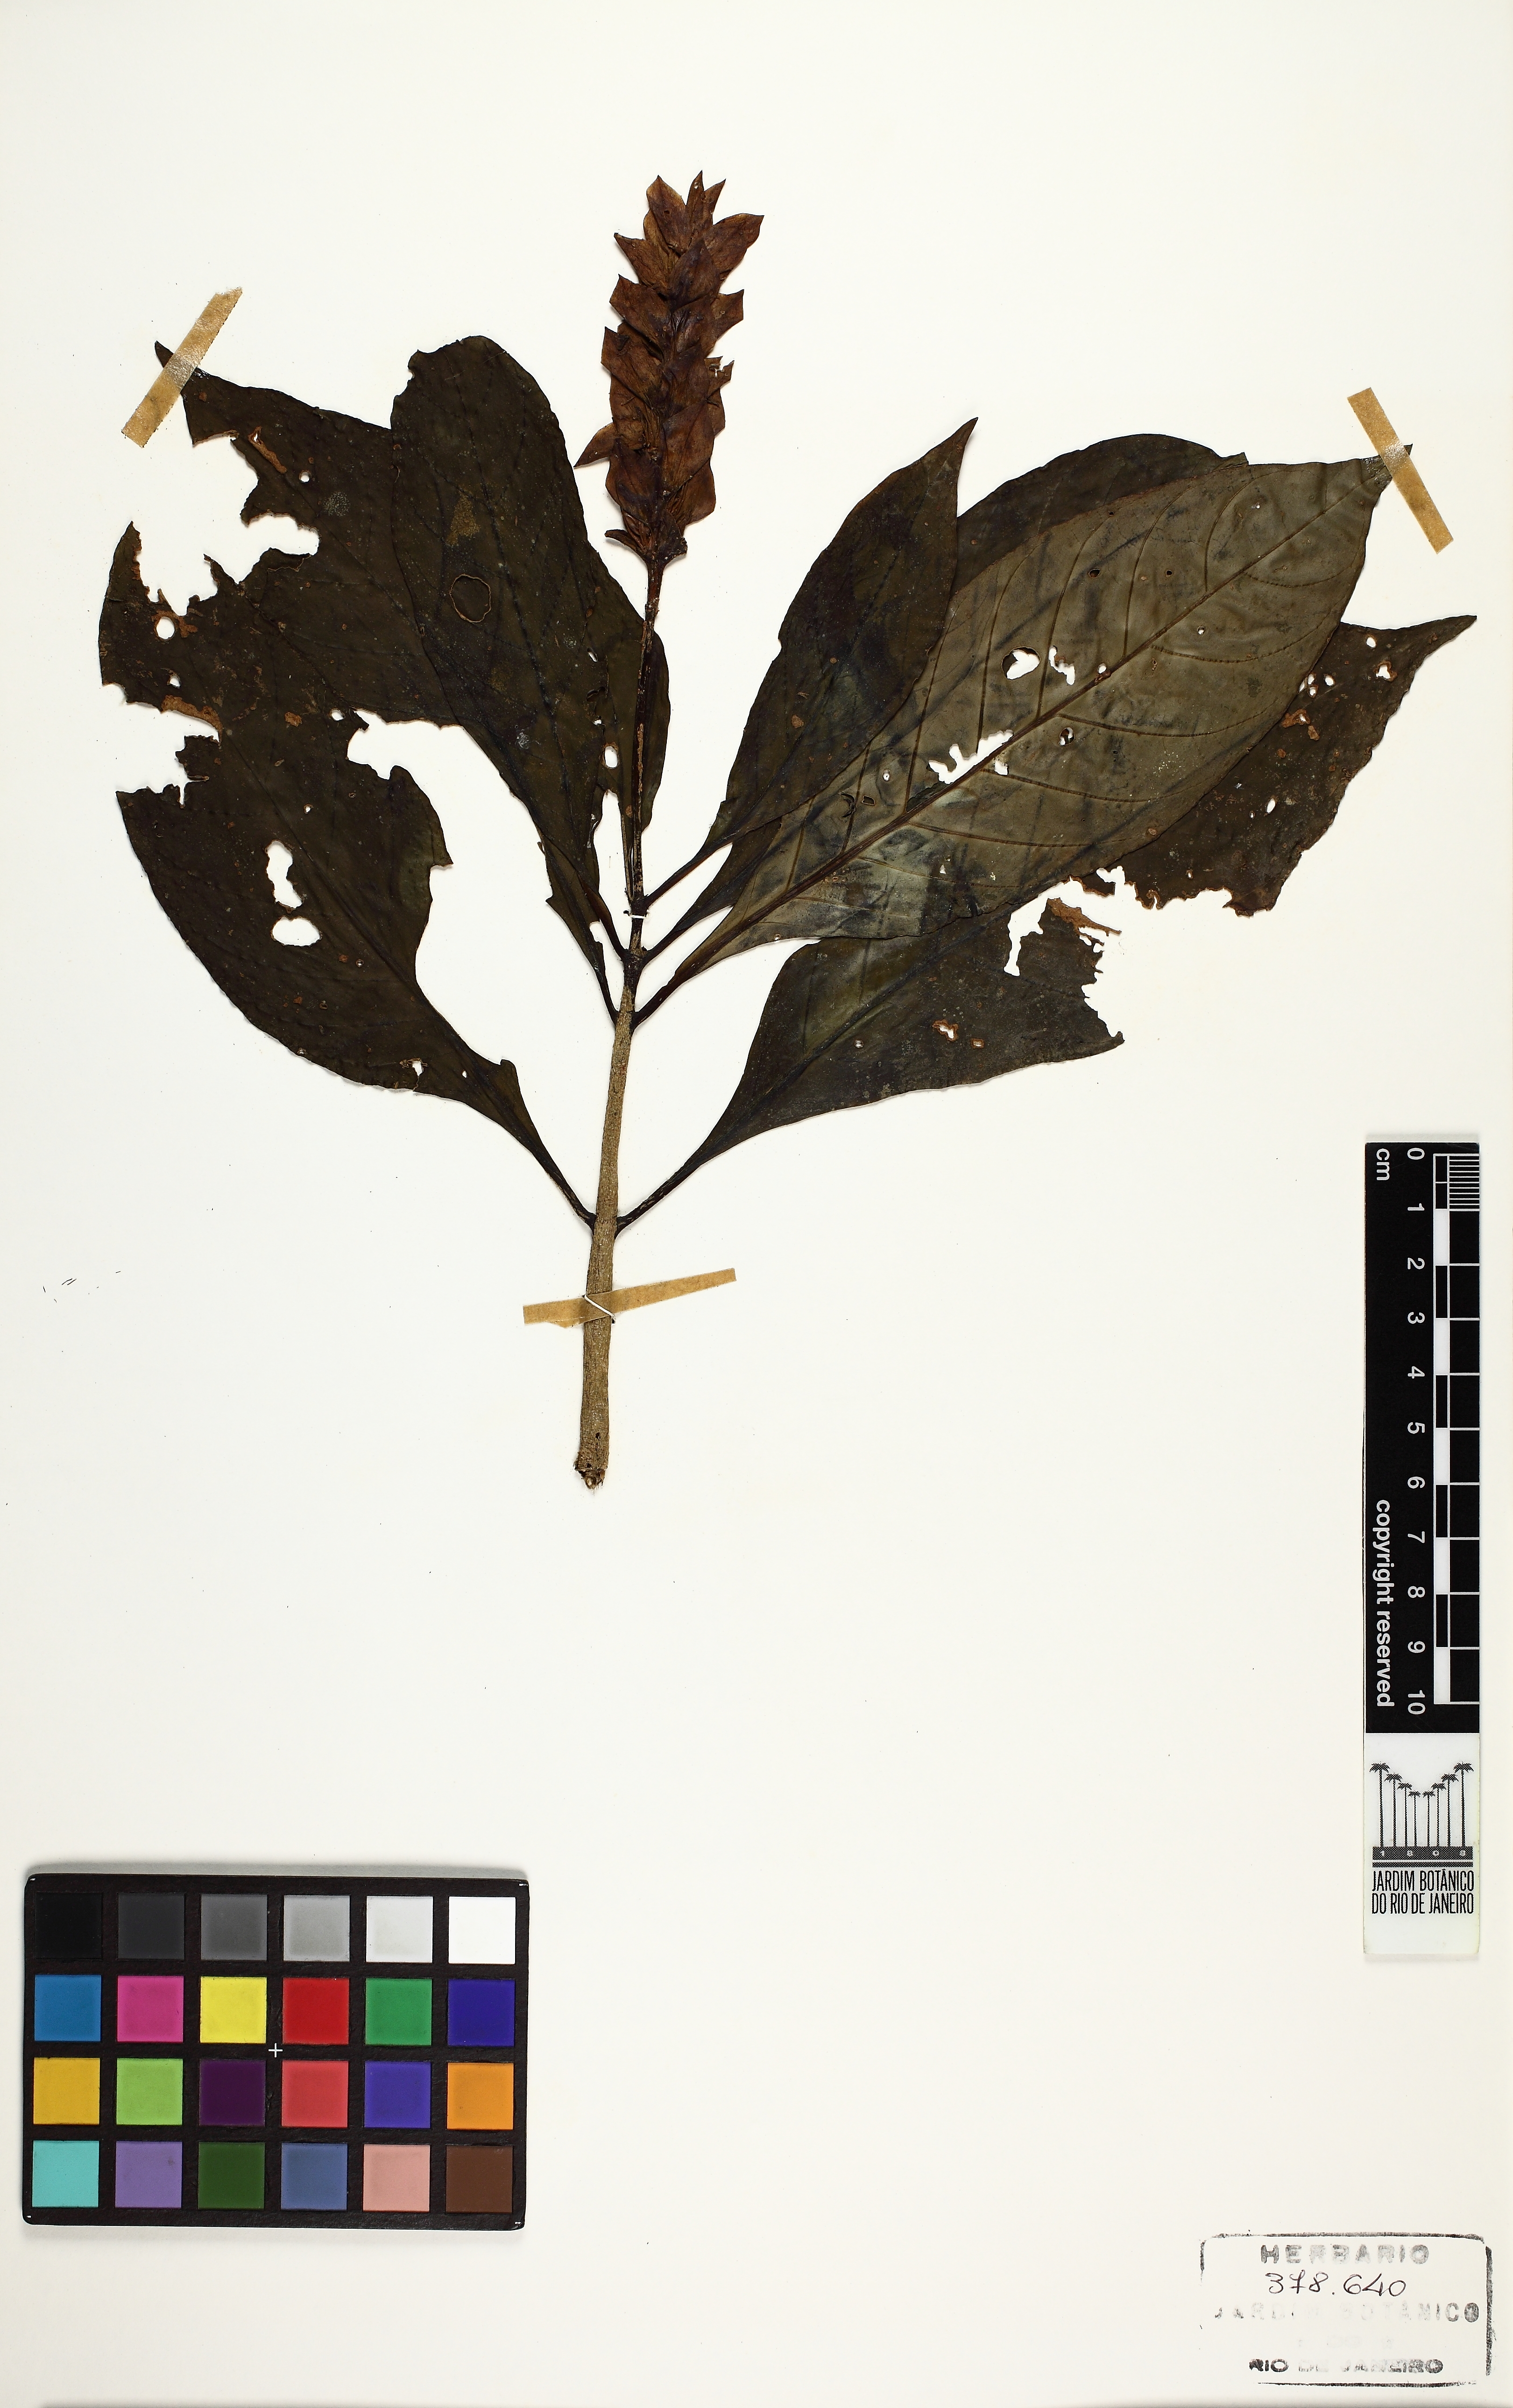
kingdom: Plantae
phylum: Tracheophyta
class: Magnoliopsida
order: Lamiales
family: Acanthaceae
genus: Aphelandra
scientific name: Aphelandra
